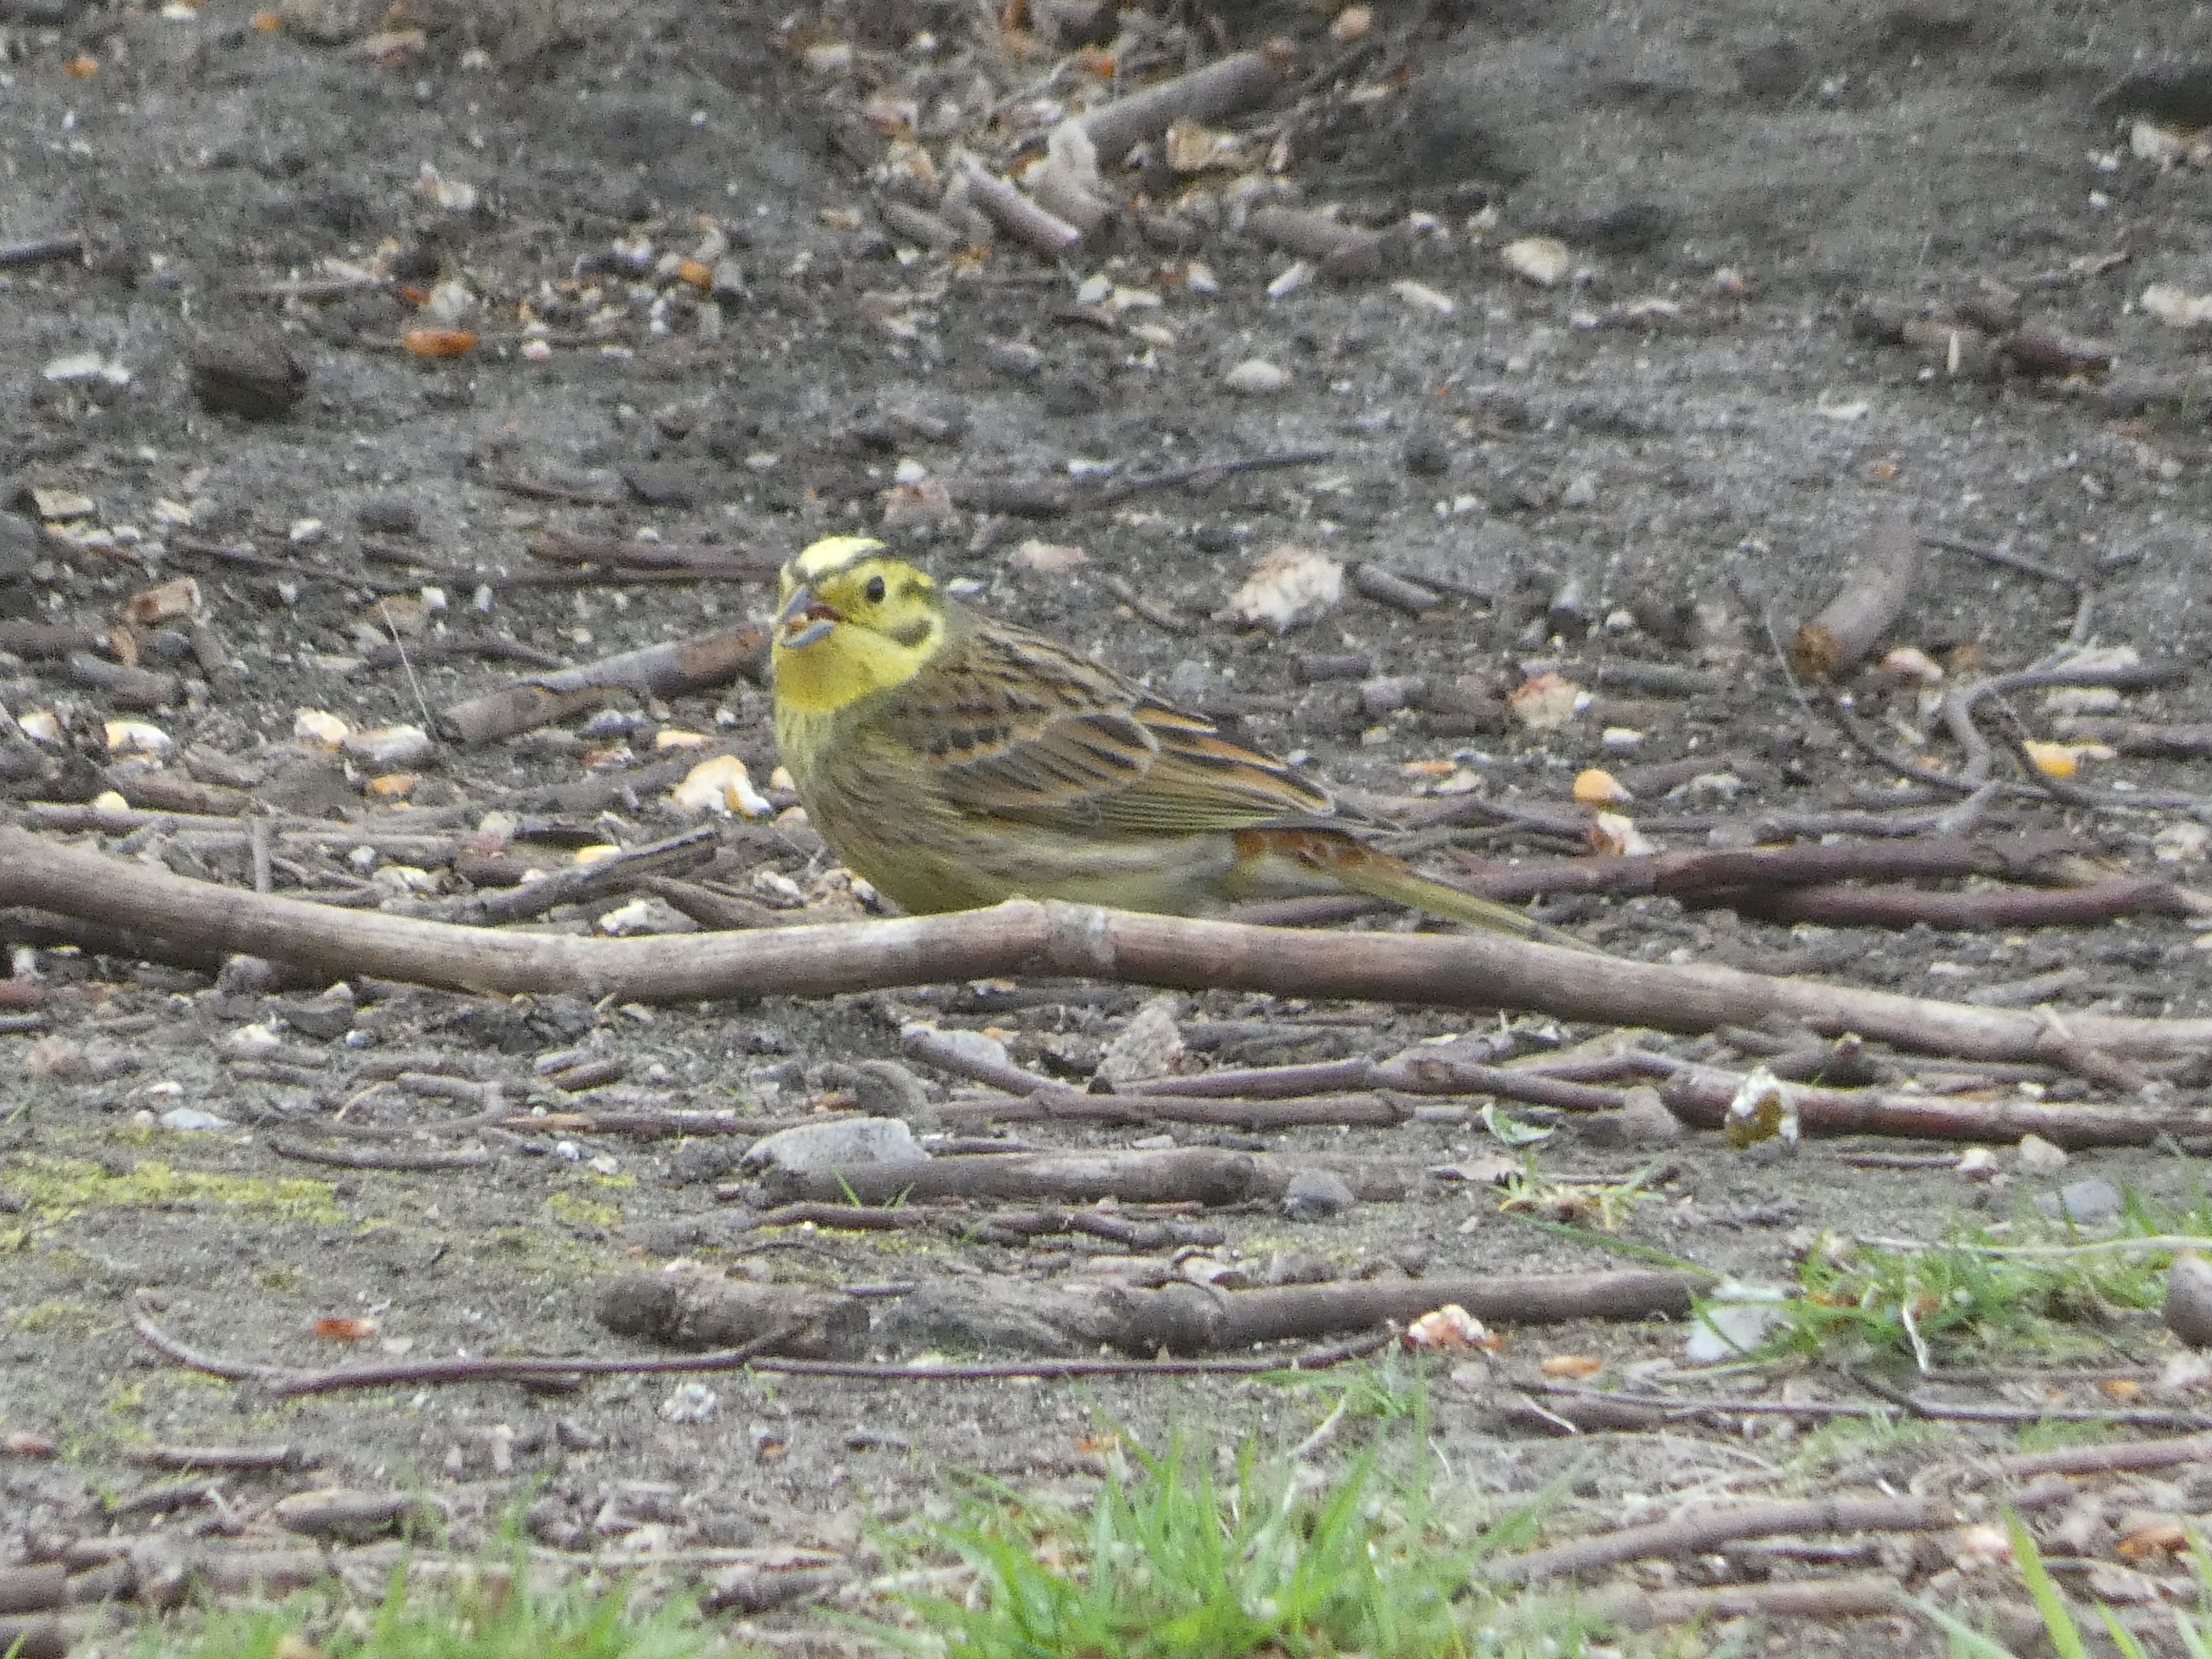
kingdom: Animalia
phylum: Chordata
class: Aves
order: Passeriformes
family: Emberizidae
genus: Emberiza
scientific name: Emberiza citrinella
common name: Gulspurv
